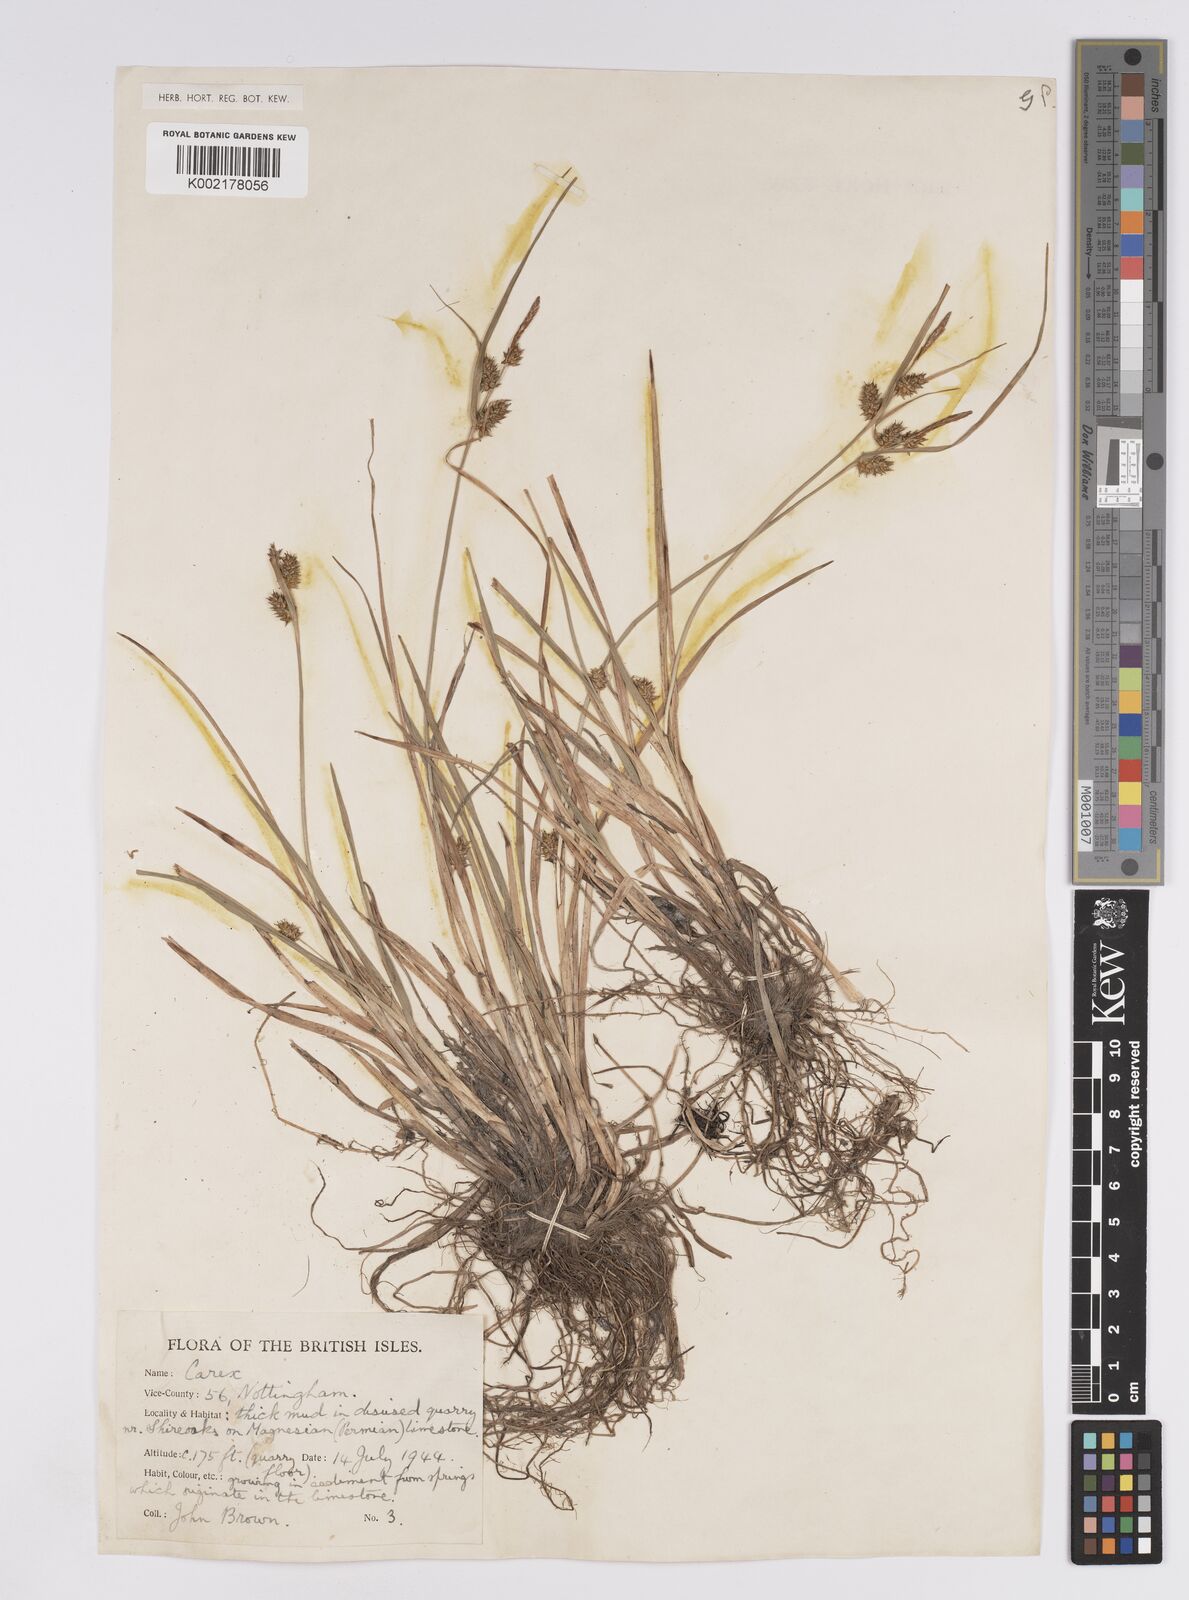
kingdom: Plantae
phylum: Tracheophyta
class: Liliopsida
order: Poales
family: Cyperaceae
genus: Carex
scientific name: Carex demissa
